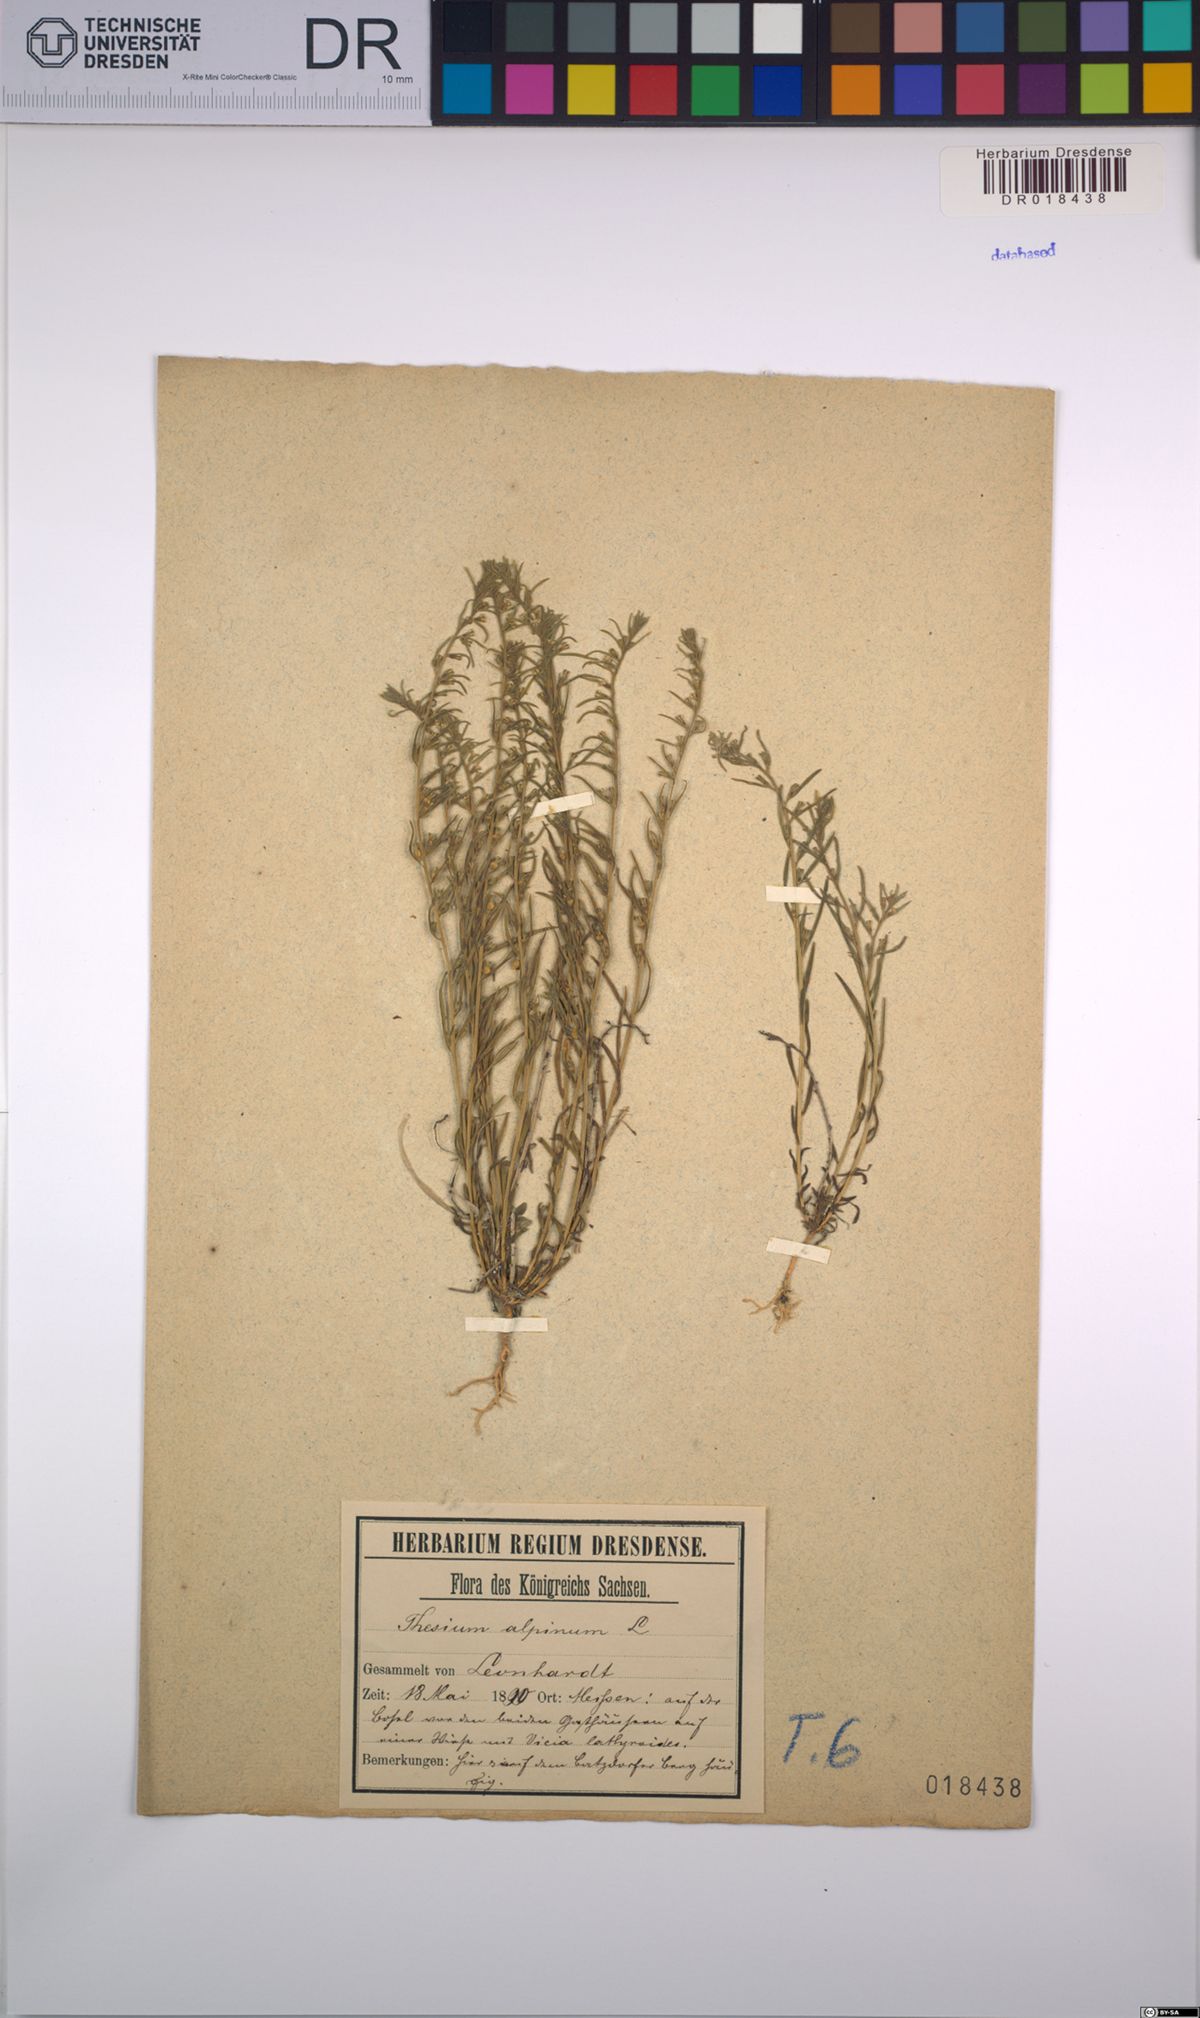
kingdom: Plantae
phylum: Tracheophyta
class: Magnoliopsida
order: Santalales
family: Thesiaceae
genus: Thesium
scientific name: Thesium alpinum
